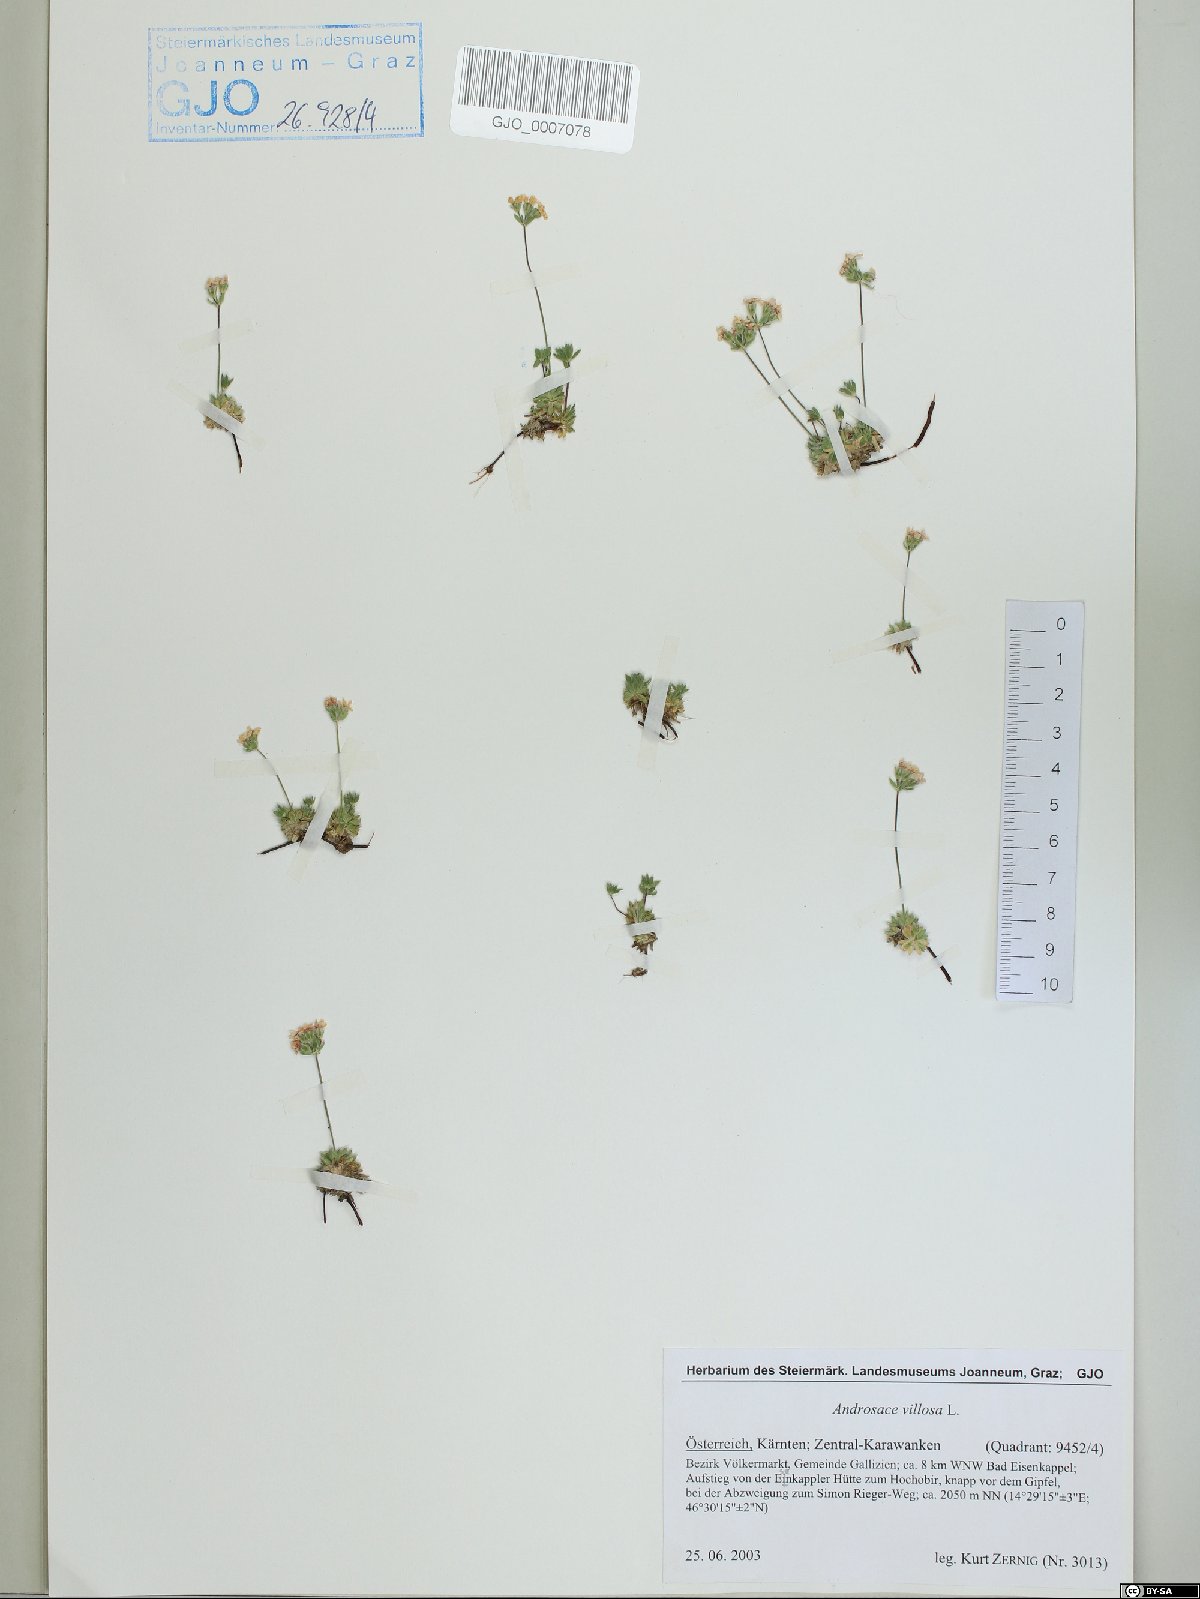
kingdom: Plantae
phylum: Tracheophyta
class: Magnoliopsida
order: Ericales
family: Primulaceae
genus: Androsace
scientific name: Androsace villosa
